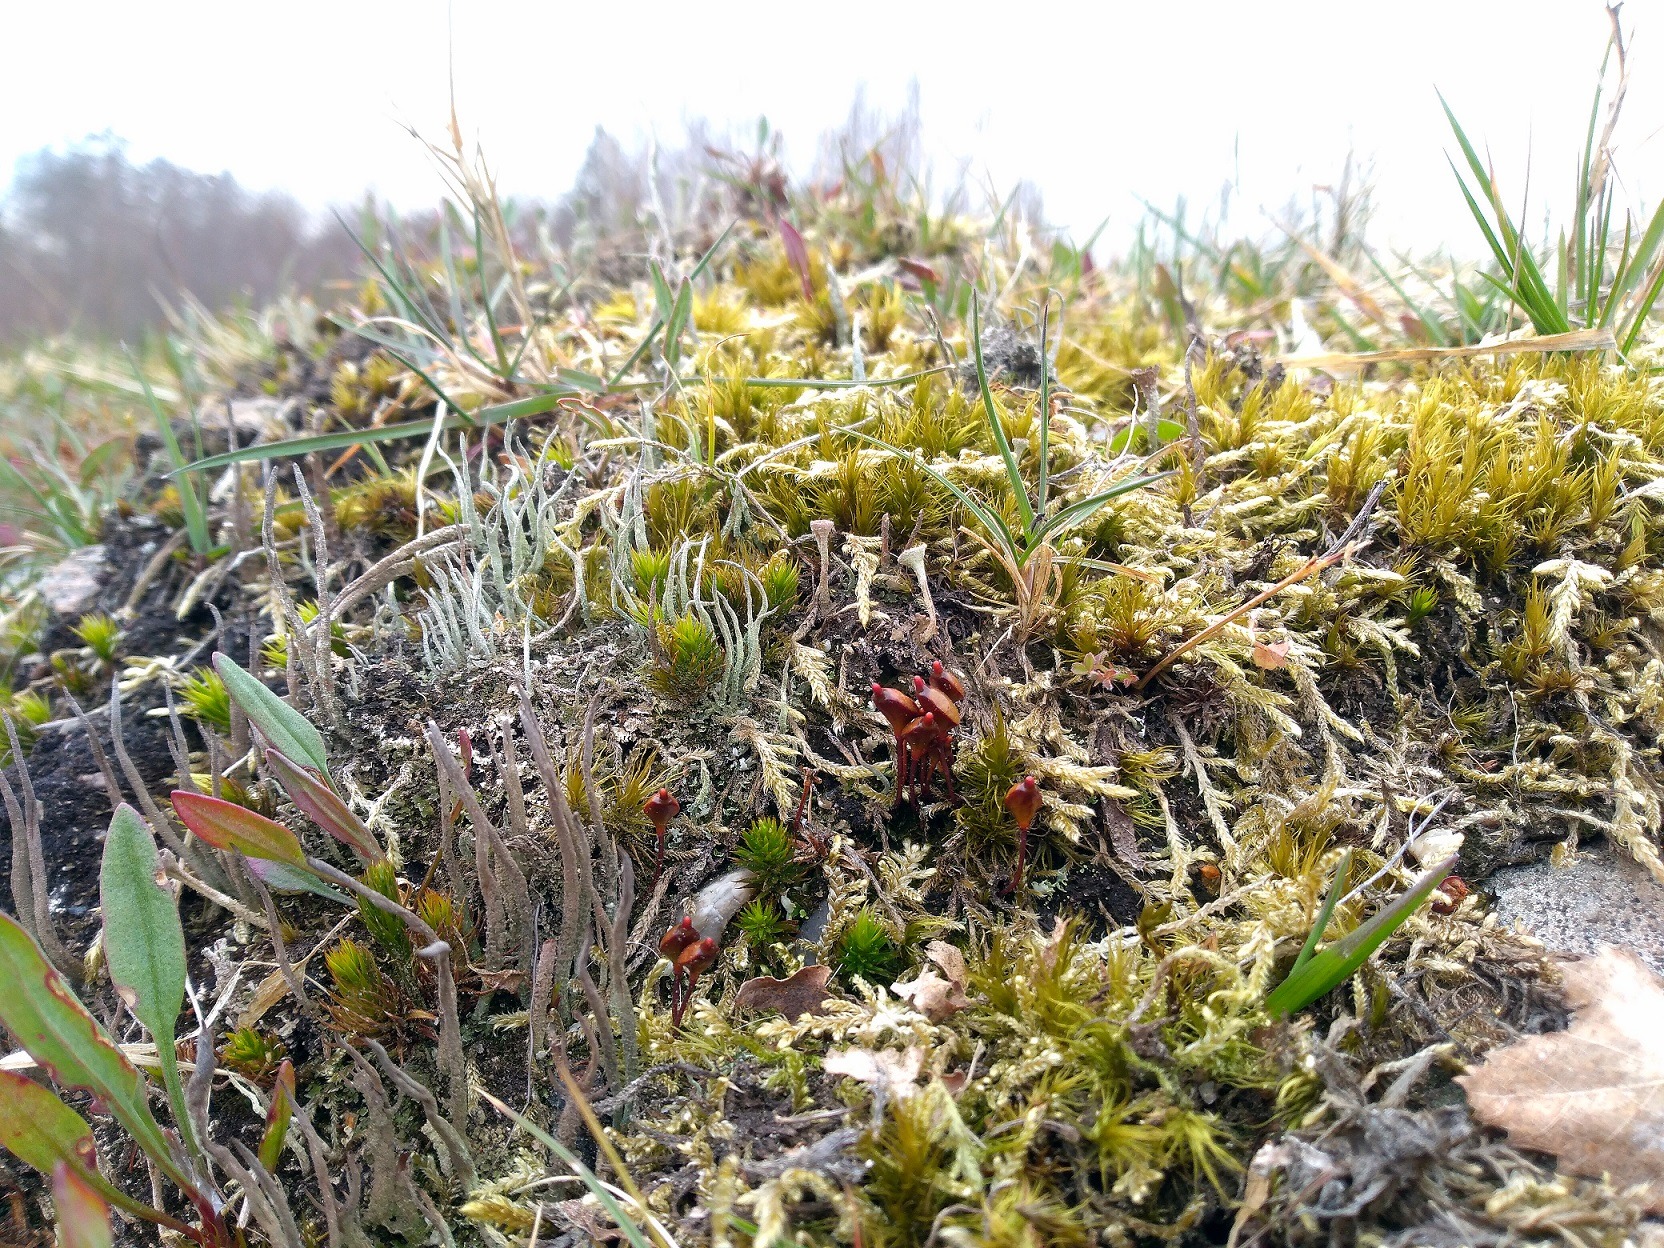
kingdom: Plantae
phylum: Bryophyta
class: Bryopsida
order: Buxbaumiales
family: Buxbaumiaceae
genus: Buxbaumia
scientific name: Buxbaumia aphylla
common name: Rundkapslet buxbaumia
